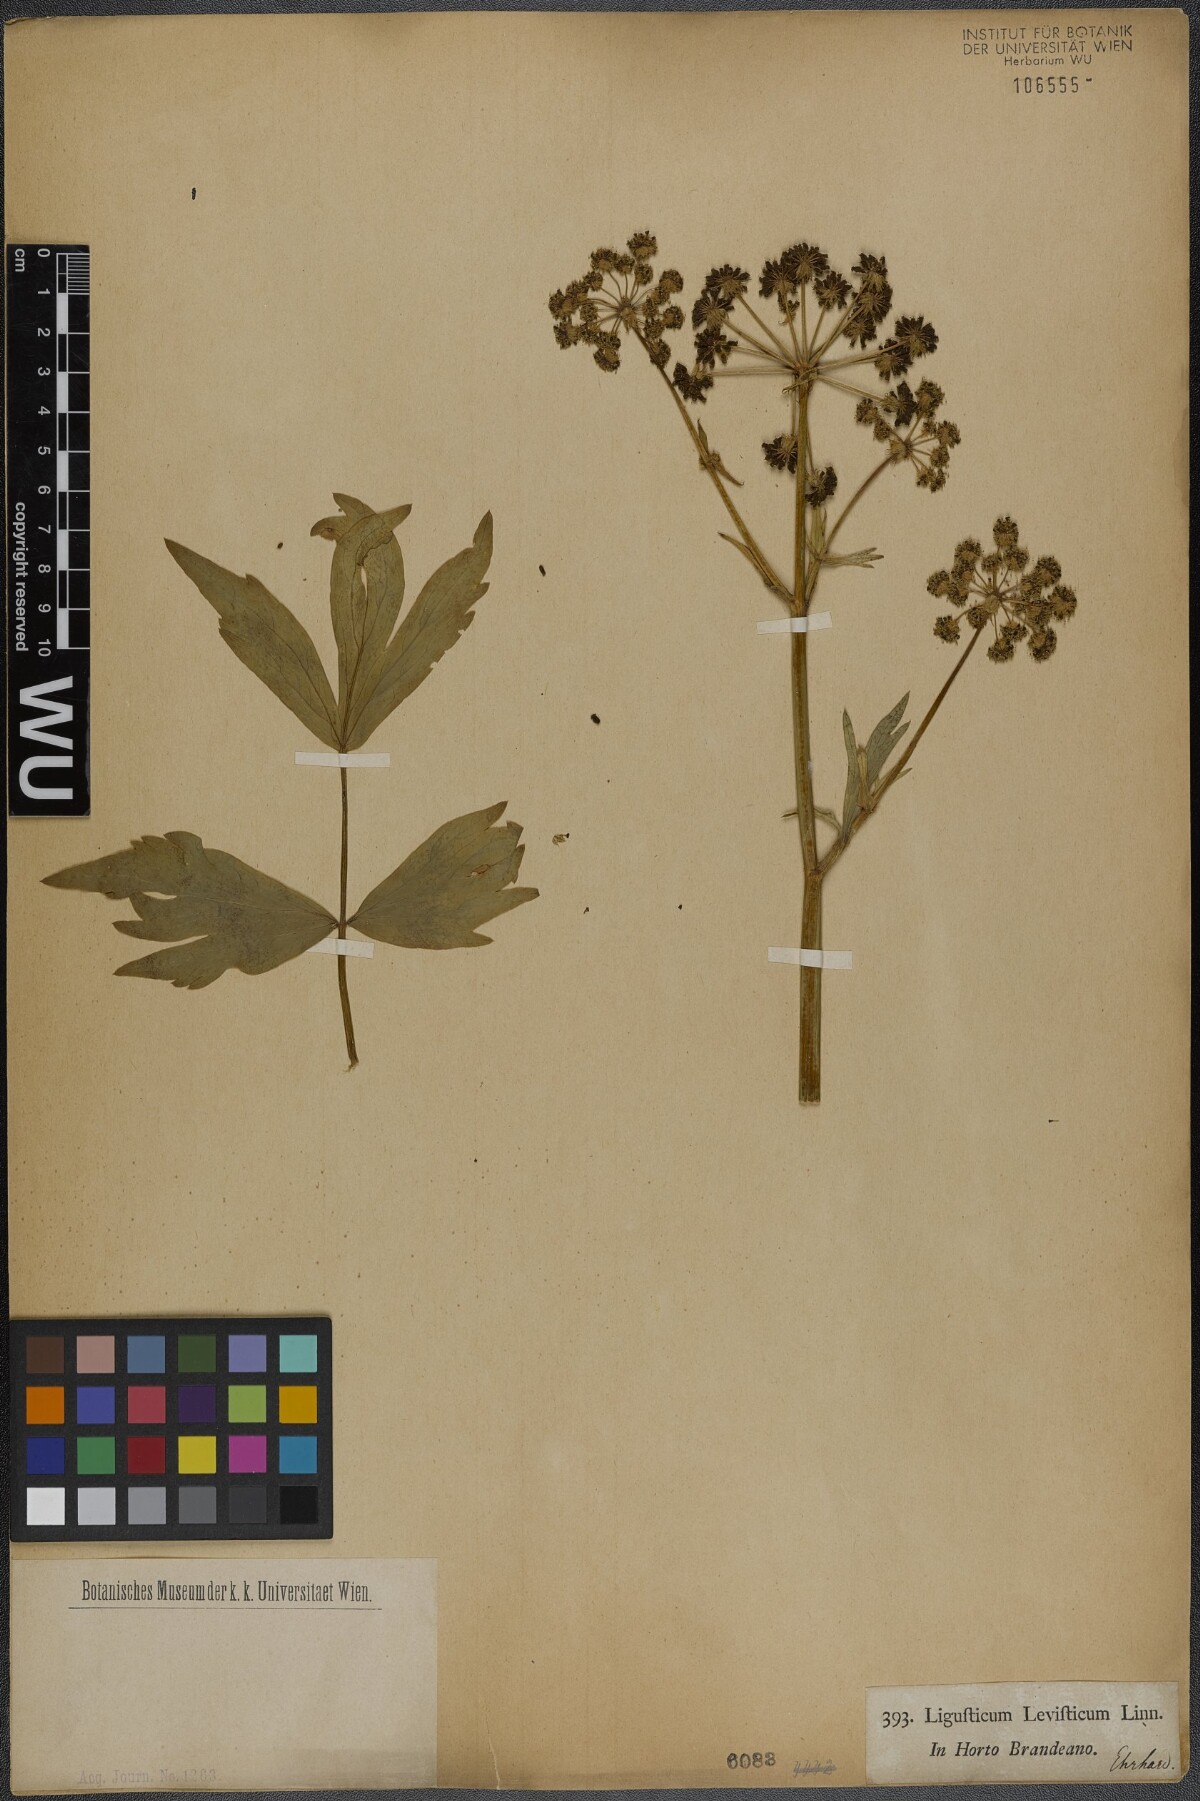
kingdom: Plantae
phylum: Tracheophyta
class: Magnoliopsida
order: Apiales
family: Apiaceae
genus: Levisticum
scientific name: Levisticum officinale
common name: Lovage
